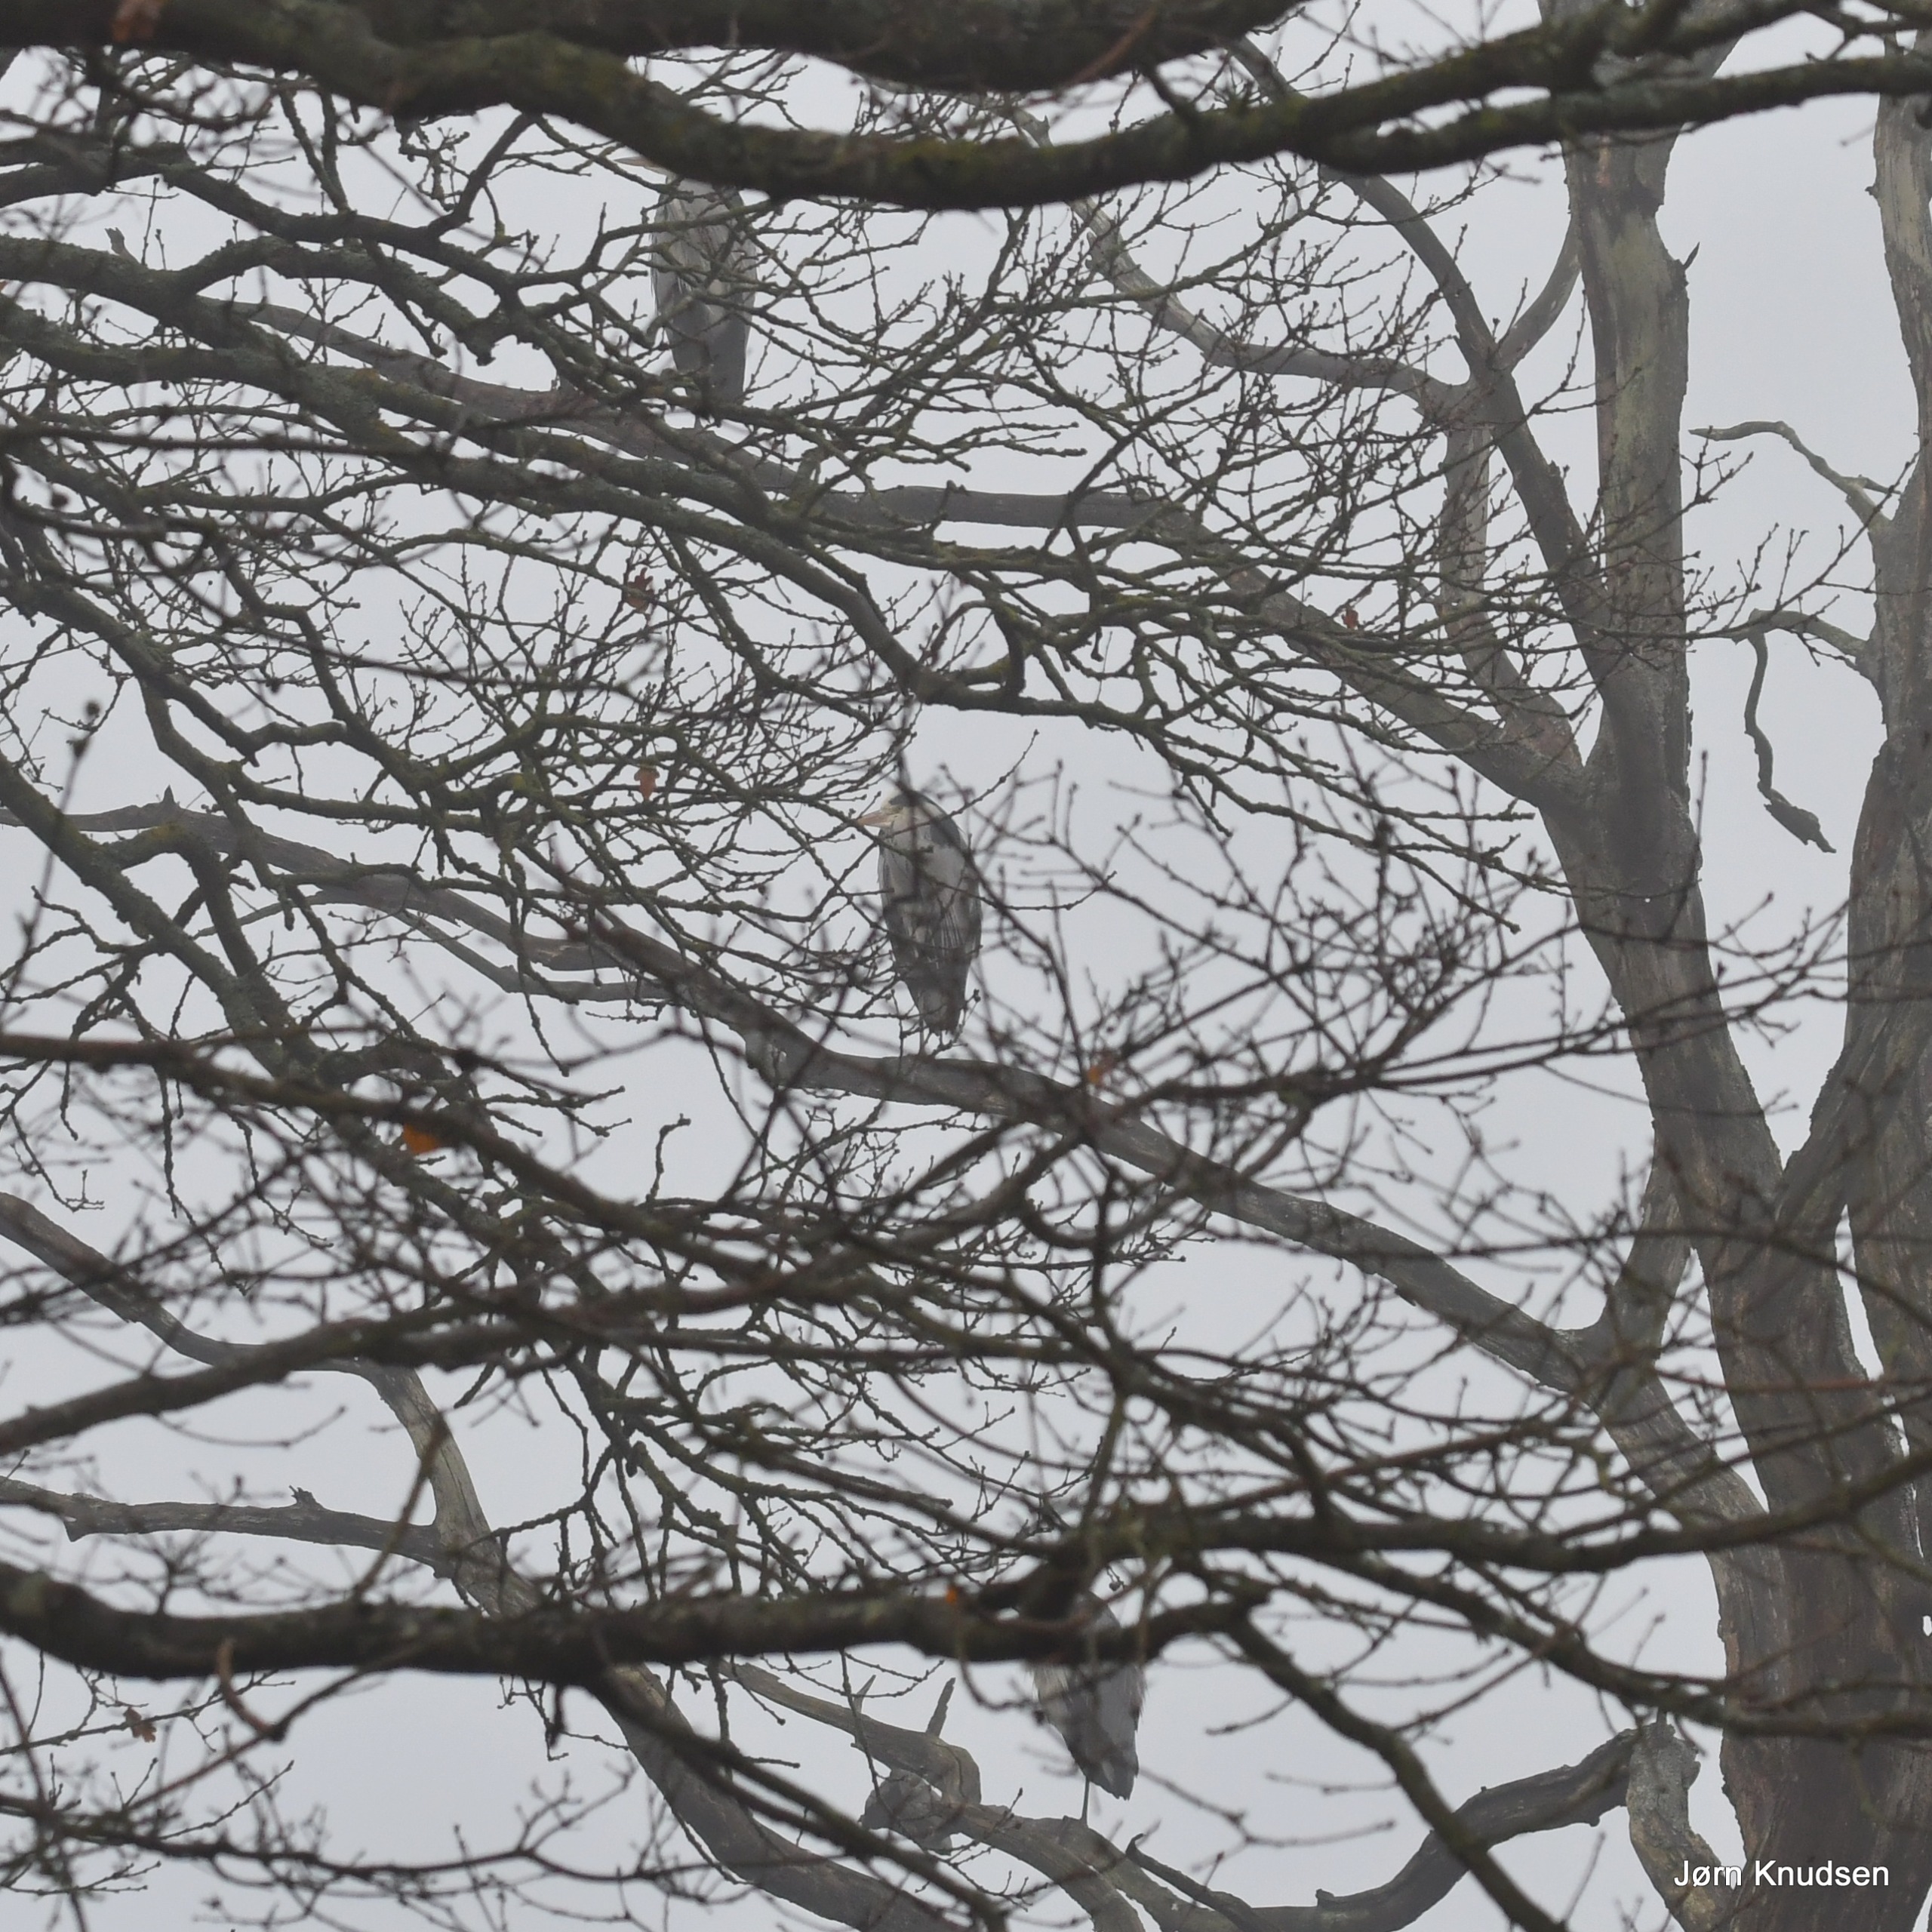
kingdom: Animalia
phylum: Chordata
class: Aves
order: Pelecaniformes
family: Ardeidae
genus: Ardea
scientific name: Ardea cinerea
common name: Fiskehejre
